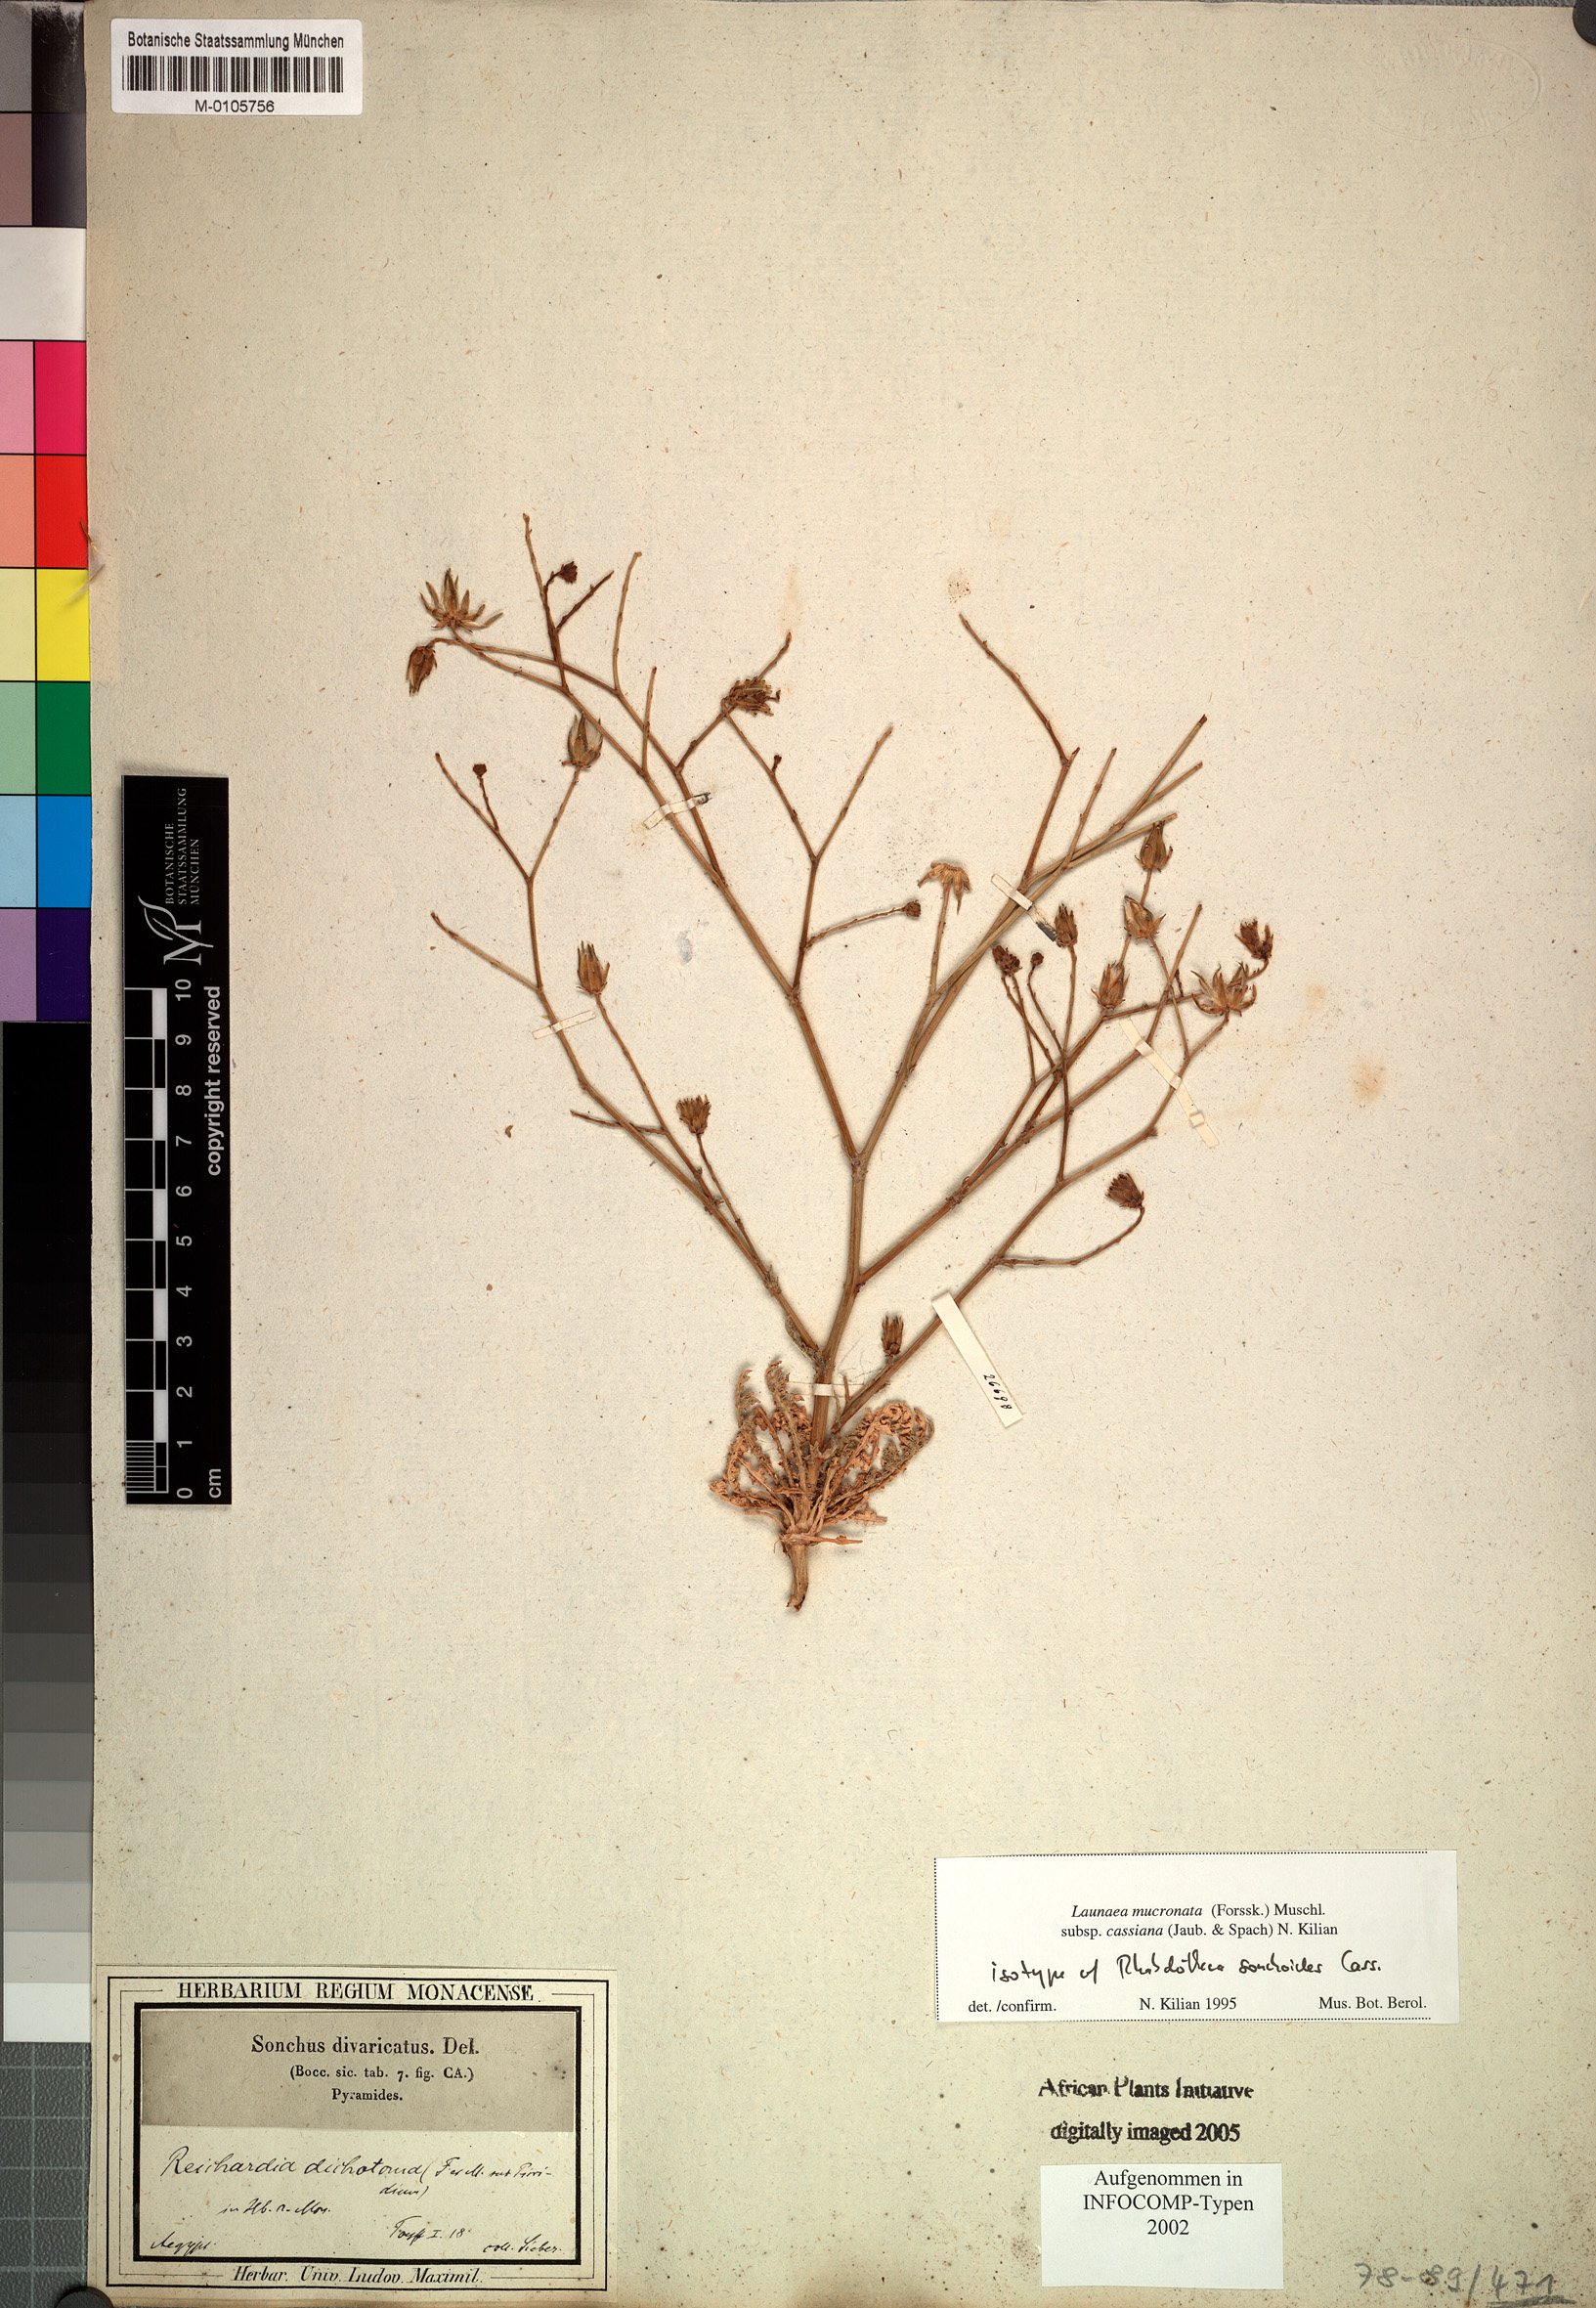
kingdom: Plantae
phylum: Tracheophyta
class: Magnoliopsida
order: Asterales
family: Asteraceae
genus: Launaea
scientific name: Launaea mucronata
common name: Mucronate launea
